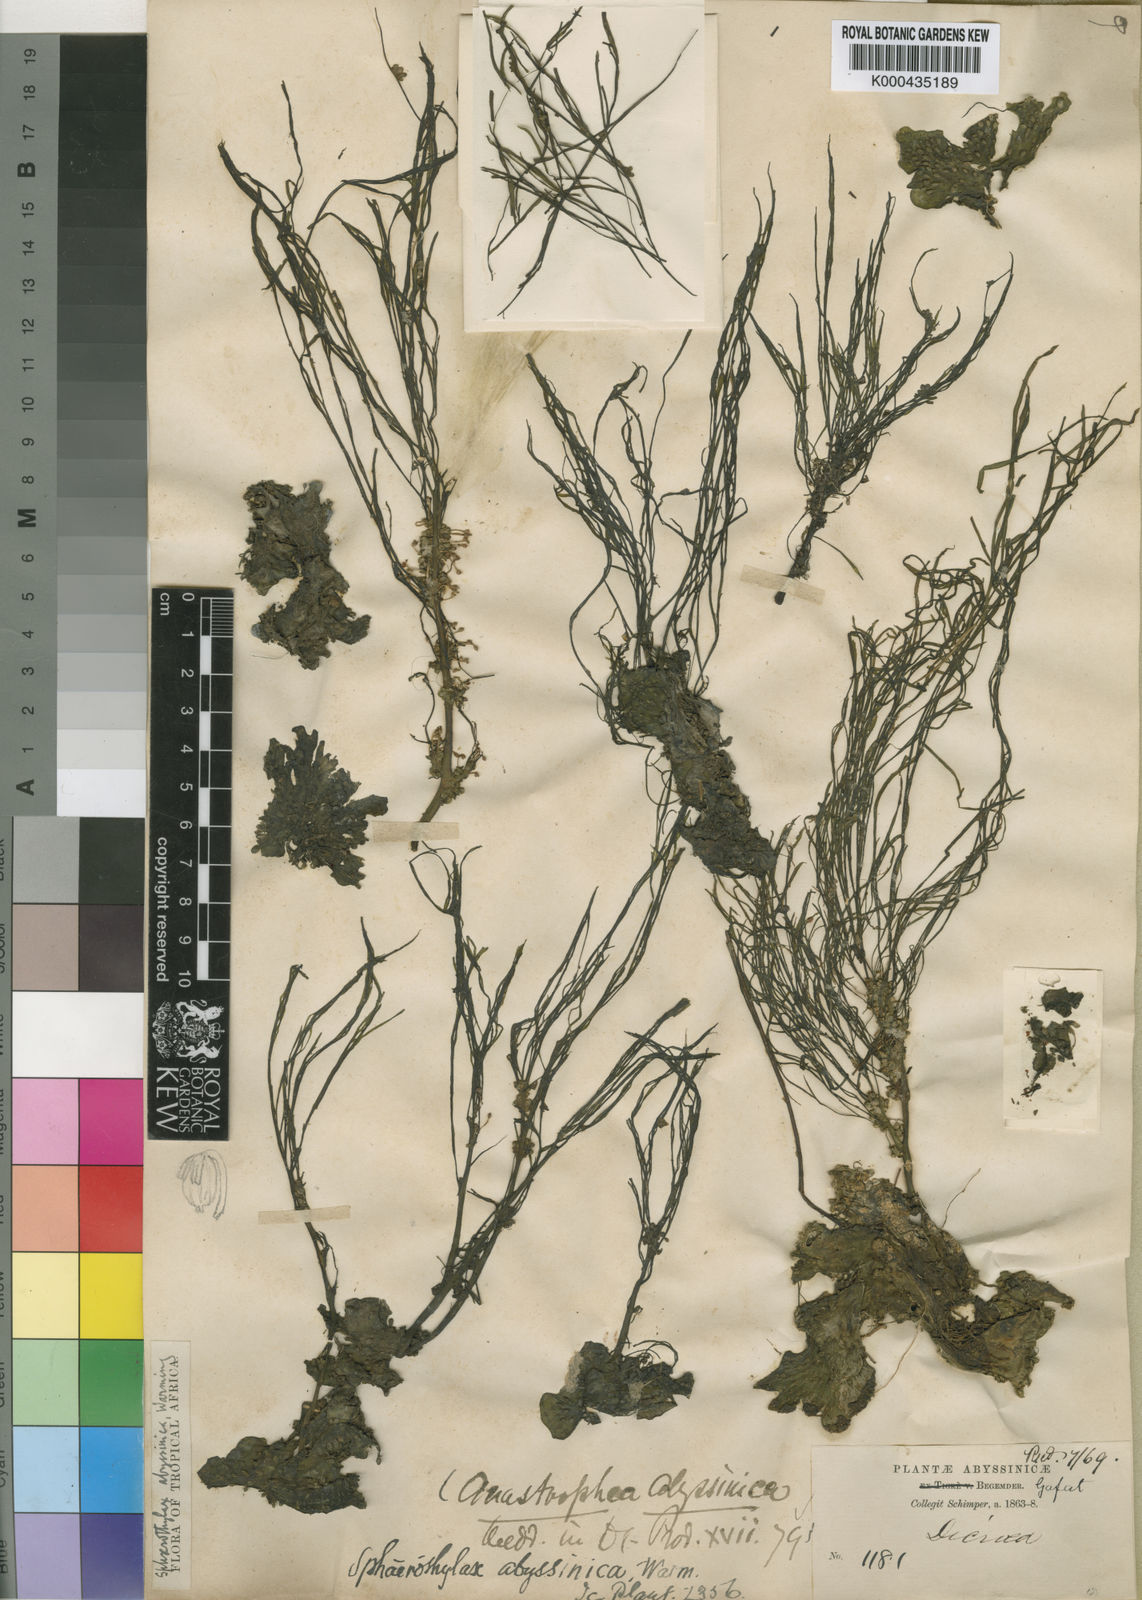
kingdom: Plantae
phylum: Tracheophyta
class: Magnoliopsida
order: Malpighiales
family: Podostemaceae
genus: Sphaerothylax
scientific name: Sphaerothylax abyssinica
